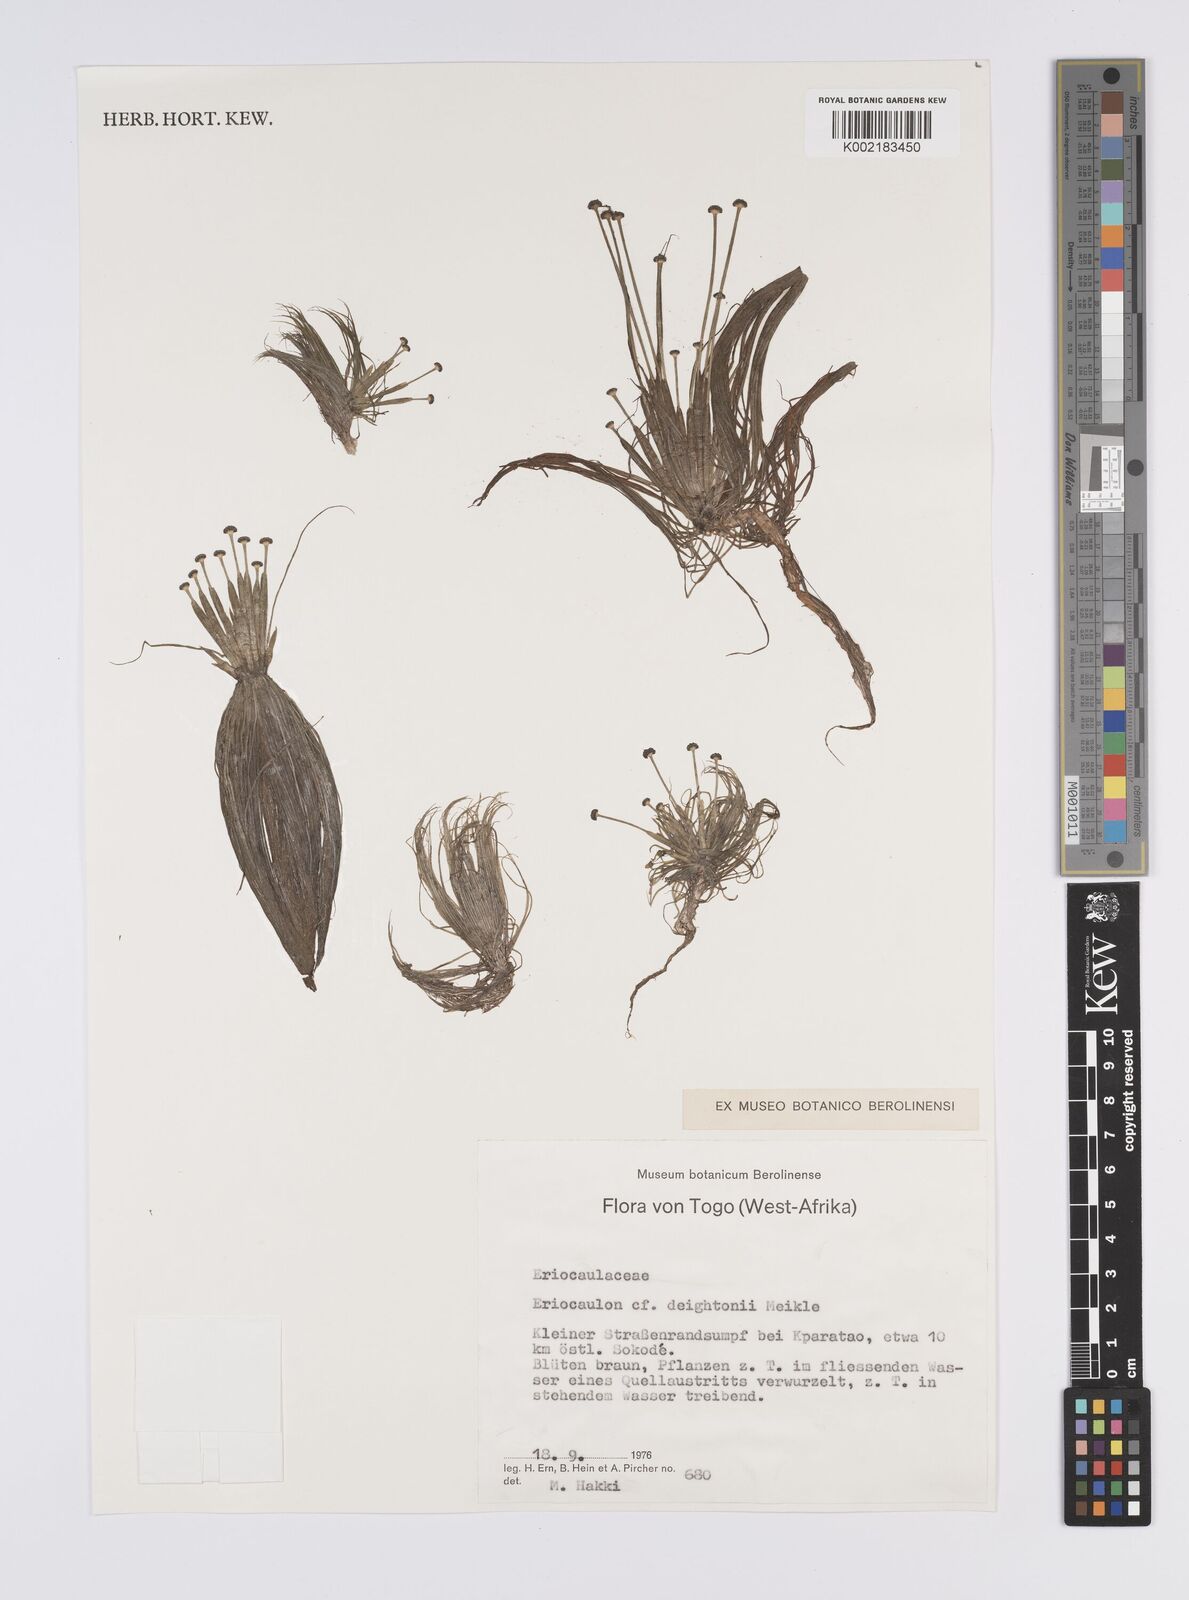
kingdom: Plantae
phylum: Tracheophyta
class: Liliopsida
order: Poales
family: Eriocaulaceae
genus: Eriocaulon
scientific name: Eriocaulon
